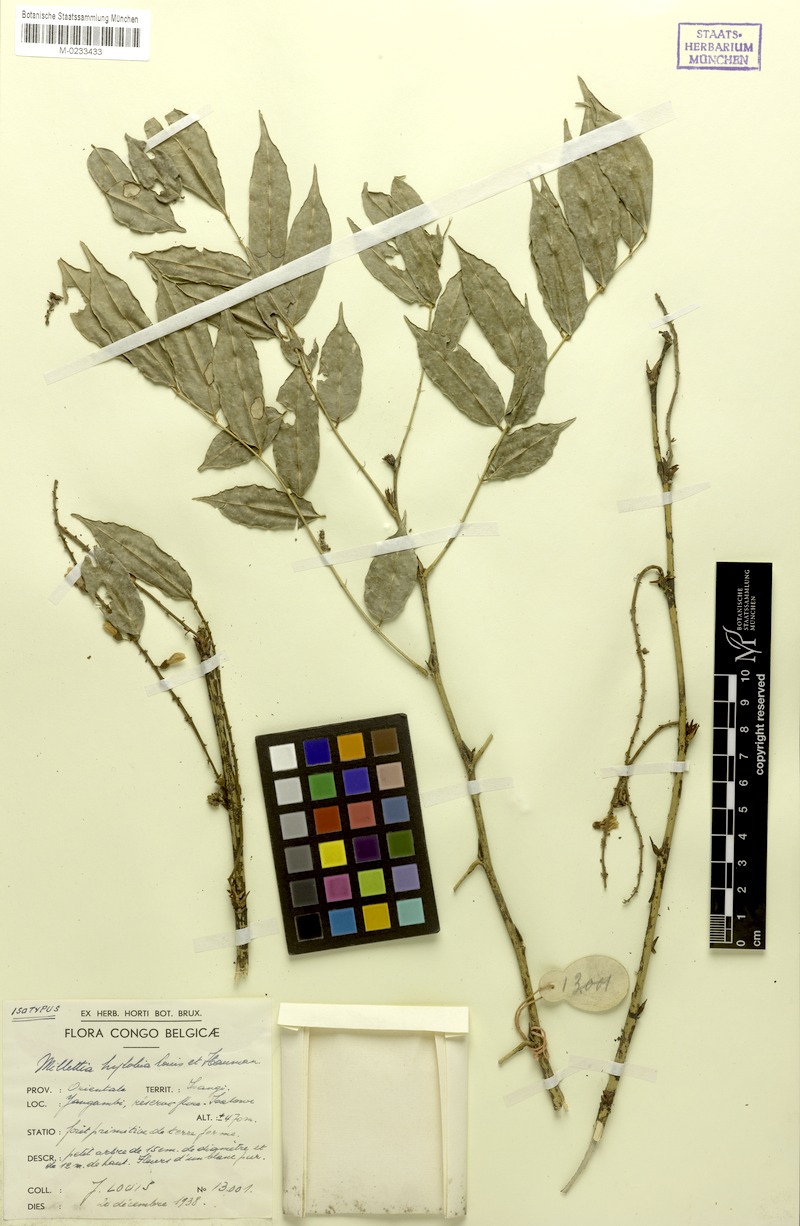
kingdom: Plantae
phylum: Tracheophyta
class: Magnoliopsida
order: Fabales
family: Fabaceae
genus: Millettia
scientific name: Millettia hylobia
